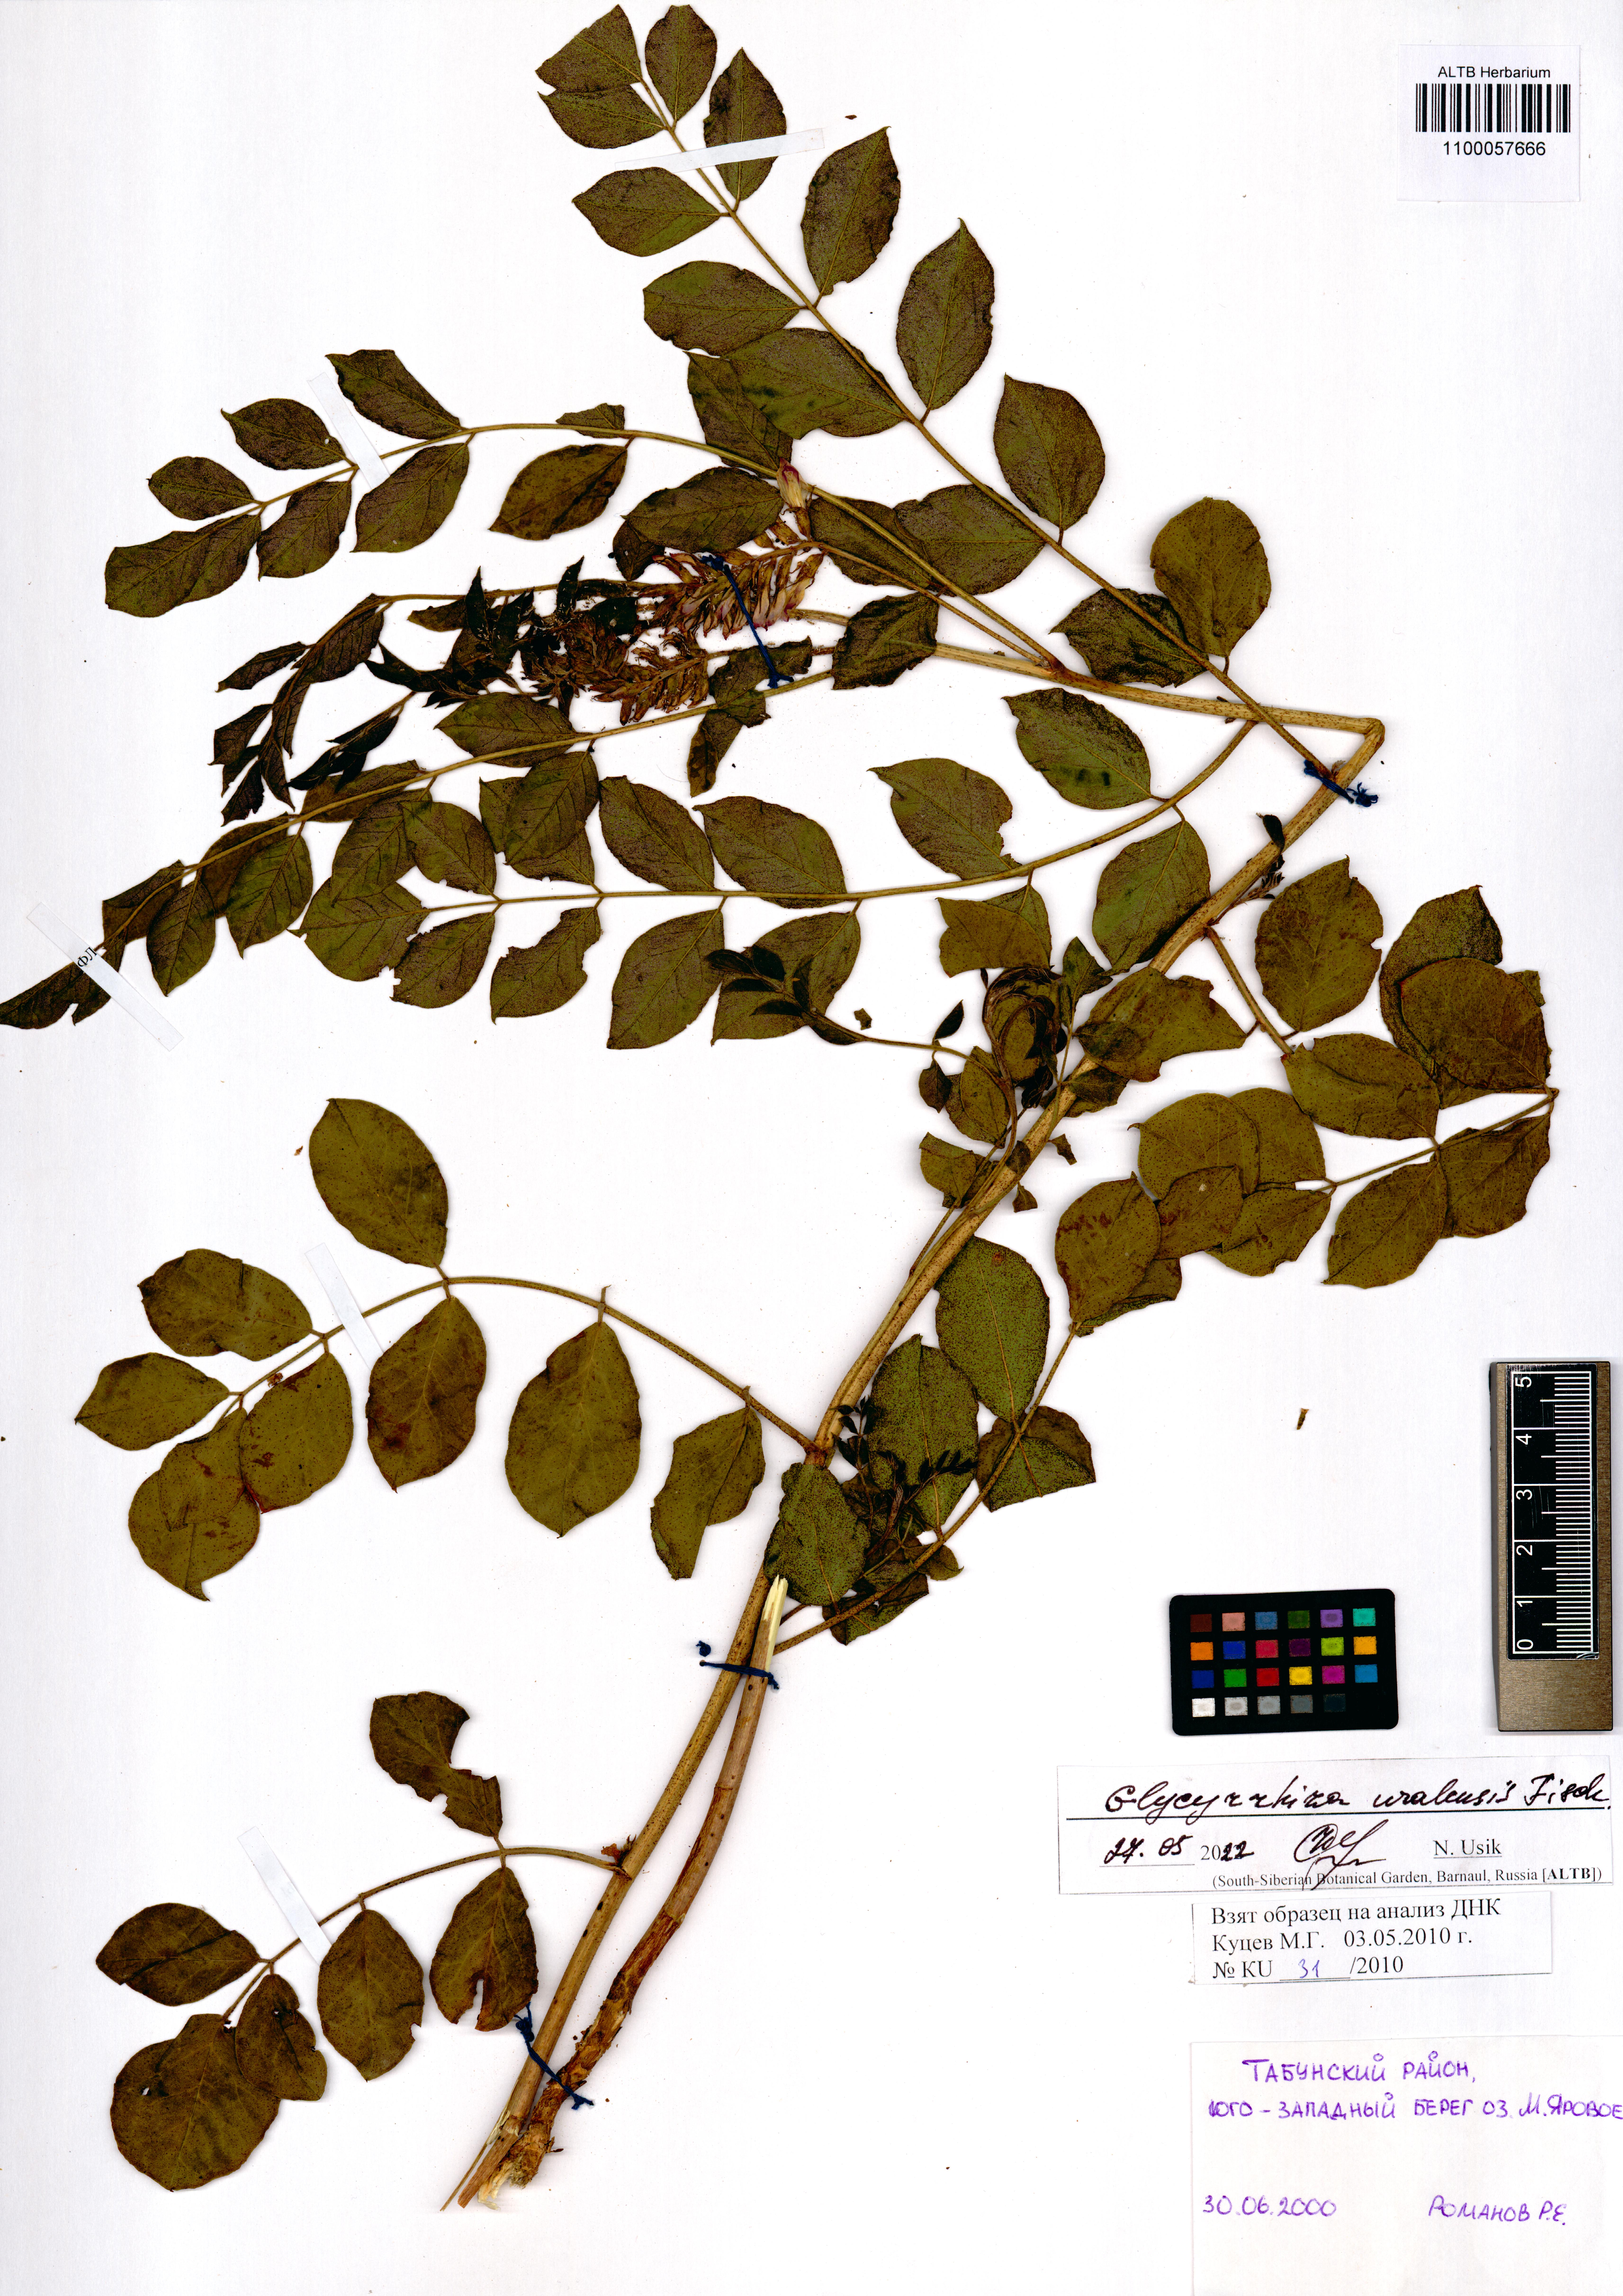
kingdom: Plantae
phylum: Tracheophyta
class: Magnoliopsida
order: Fabales
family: Fabaceae
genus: Glycyrrhiza
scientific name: Glycyrrhiza uralensis
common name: Chinese licorice
